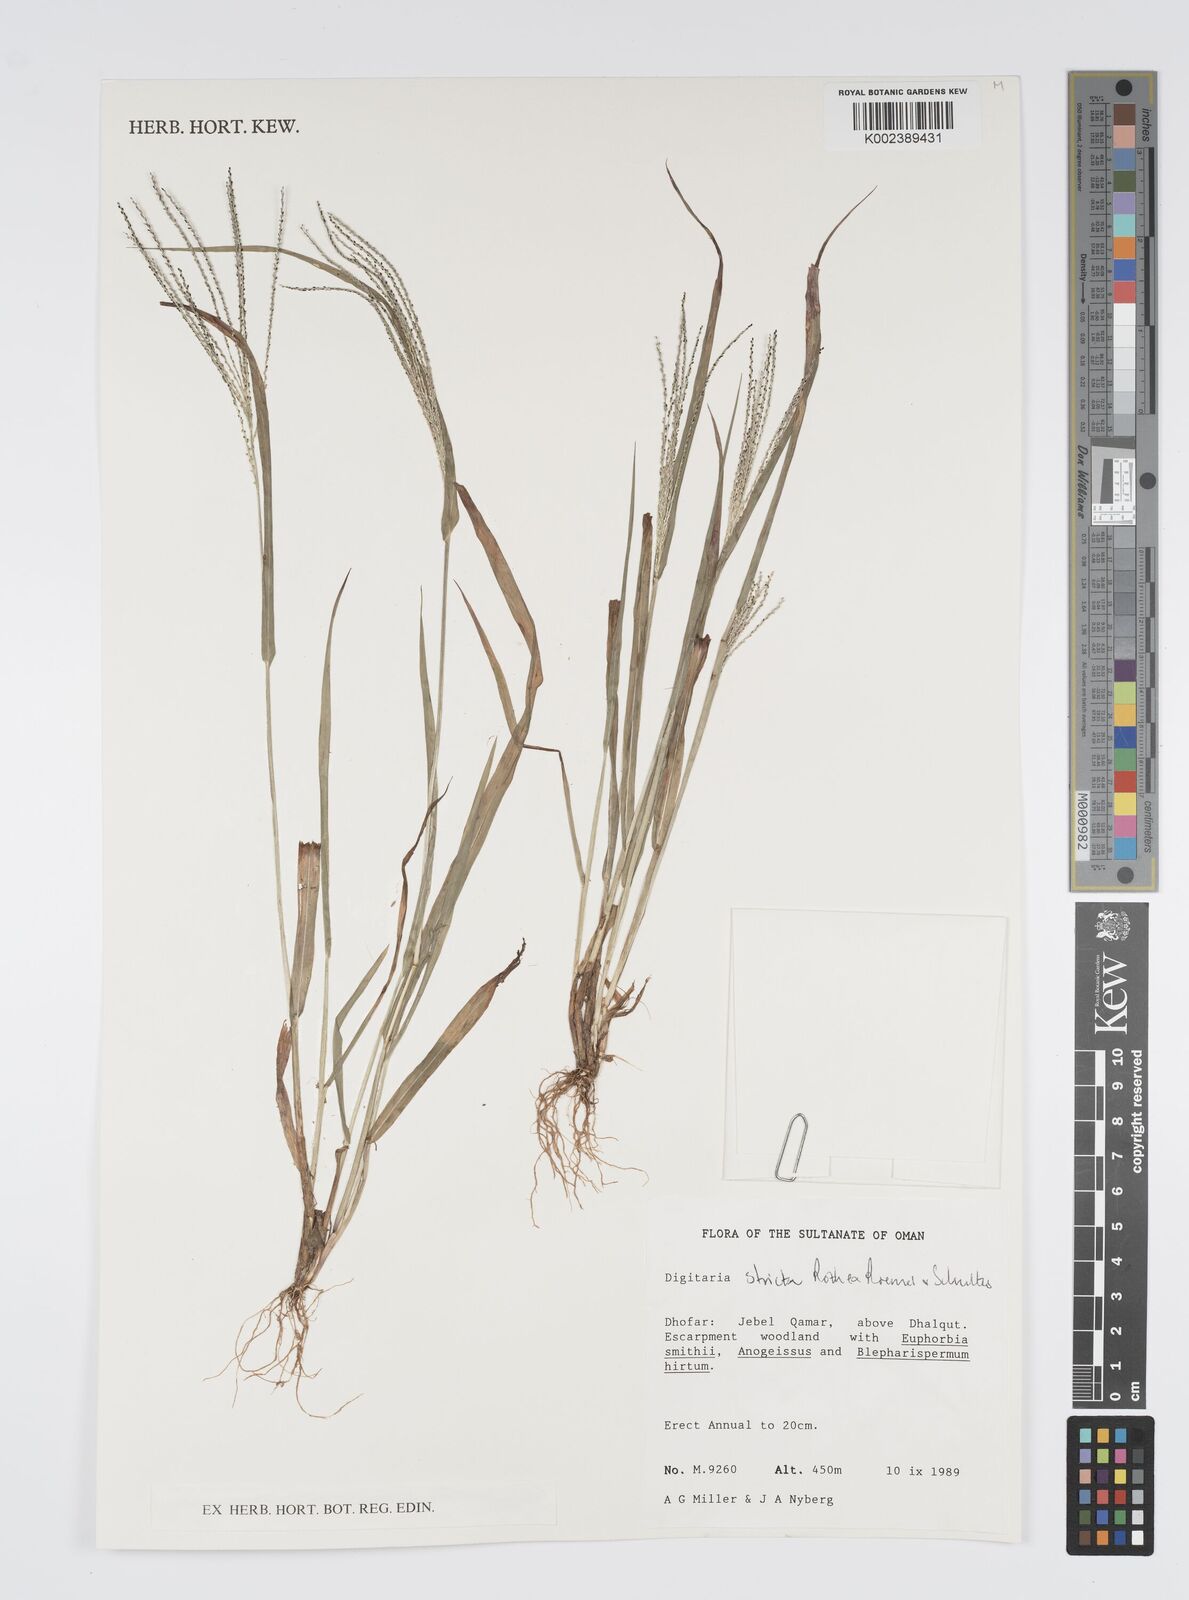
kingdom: Plantae
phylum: Tracheophyta
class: Liliopsida
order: Poales
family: Poaceae
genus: Digitaria
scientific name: Digitaria stricta
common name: Crabgrass
